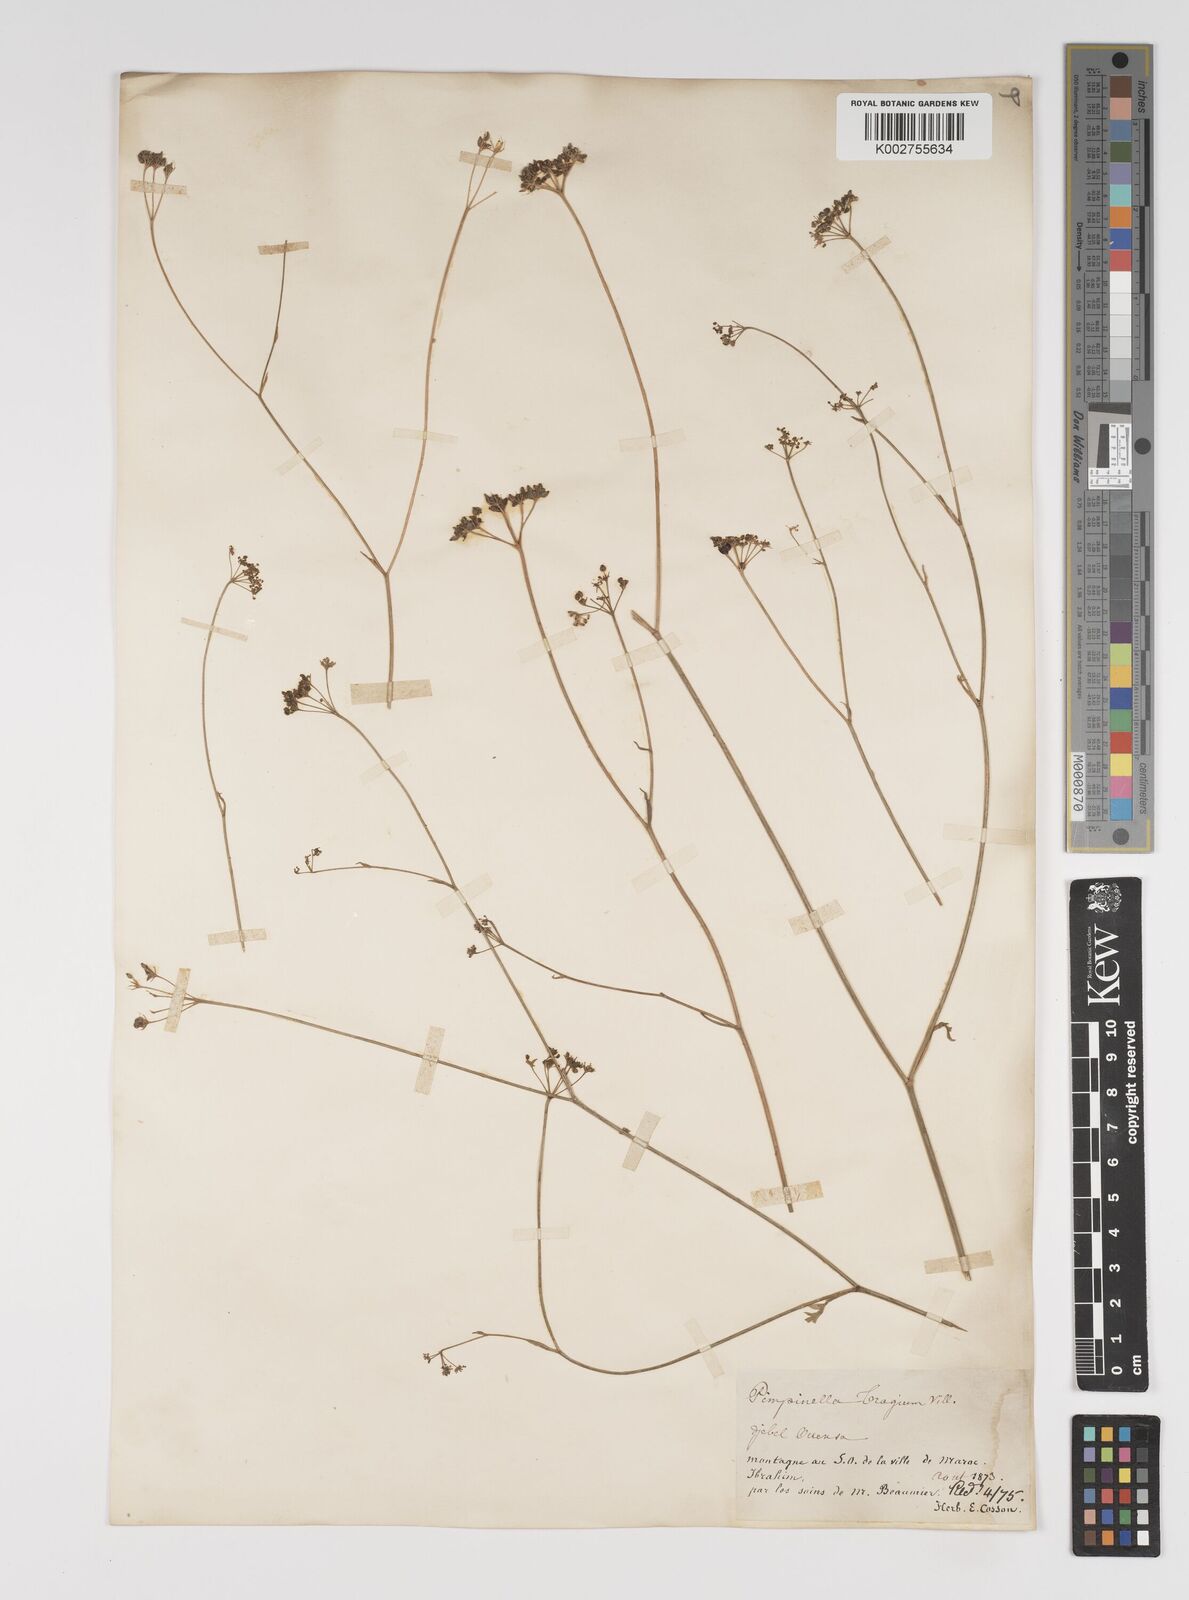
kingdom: Plantae
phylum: Tracheophyta
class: Magnoliopsida
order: Apiales
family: Apiaceae
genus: Pimpinella
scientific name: Pimpinella tragium
